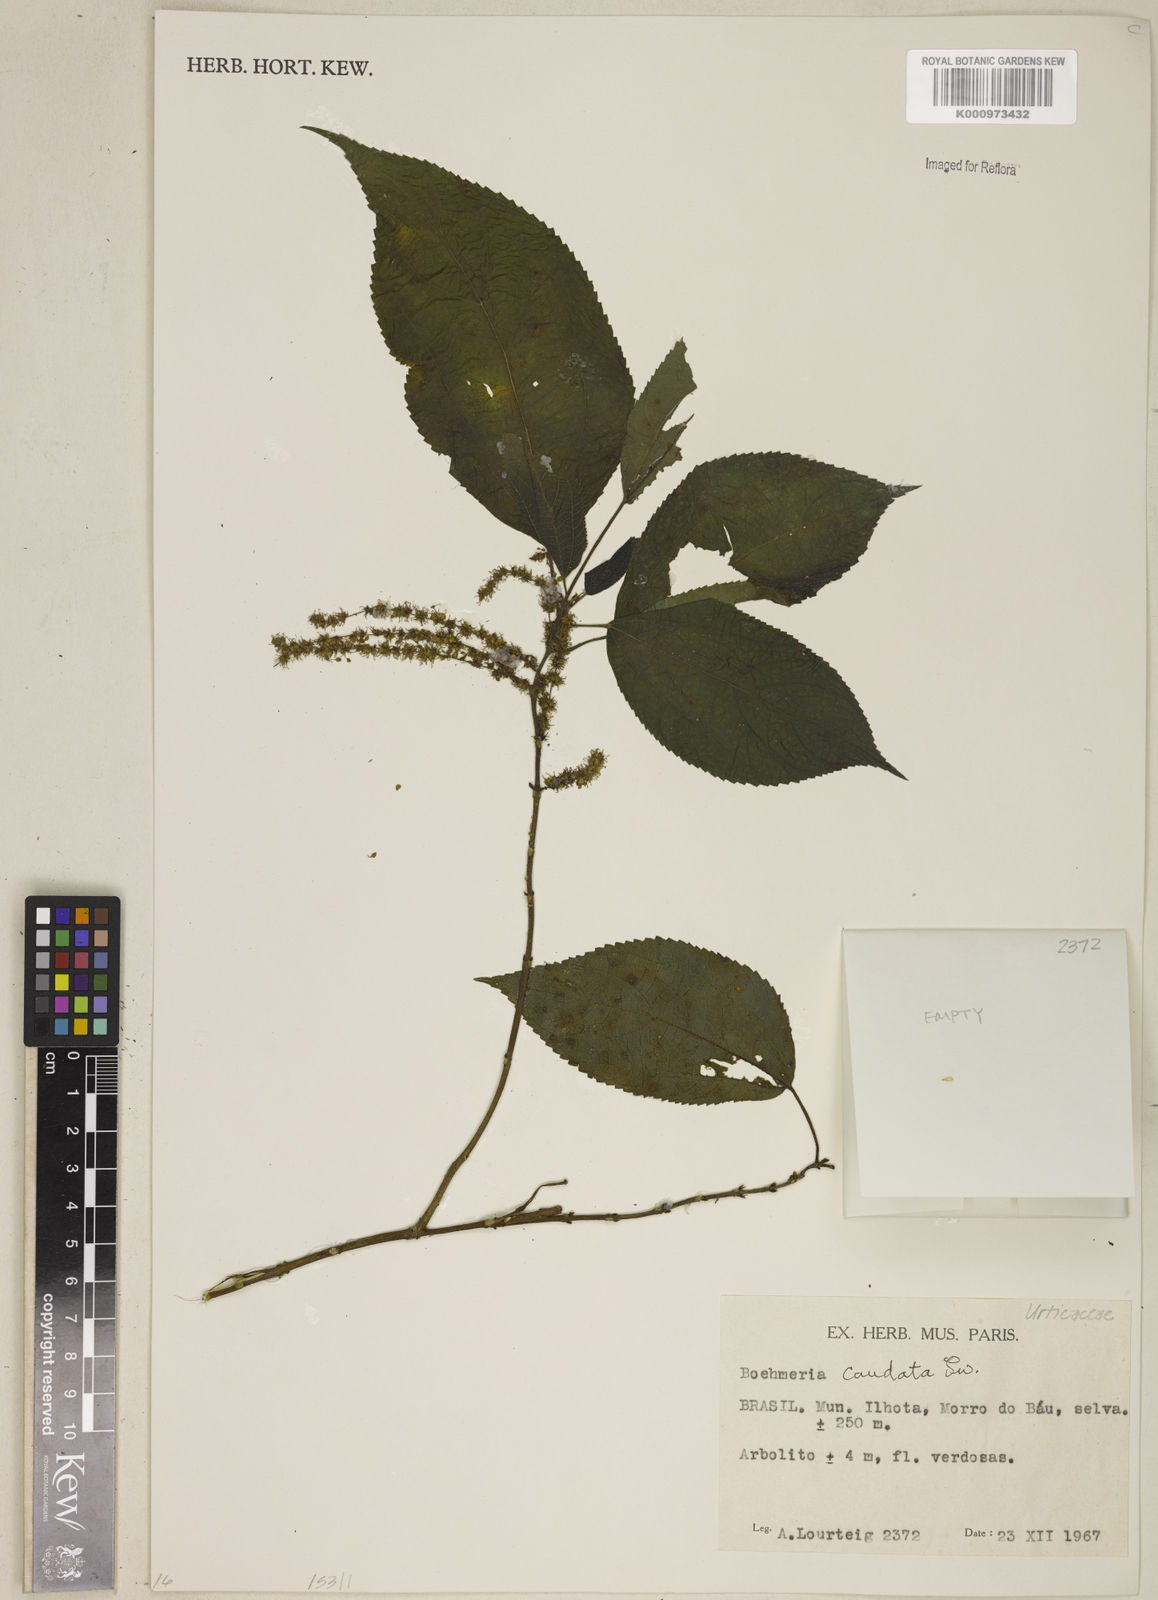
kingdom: Plantae
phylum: Tracheophyta
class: Magnoliopsida
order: Rosales
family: Urticaceae
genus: Boehmeria
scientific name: Boehmeria caudata
